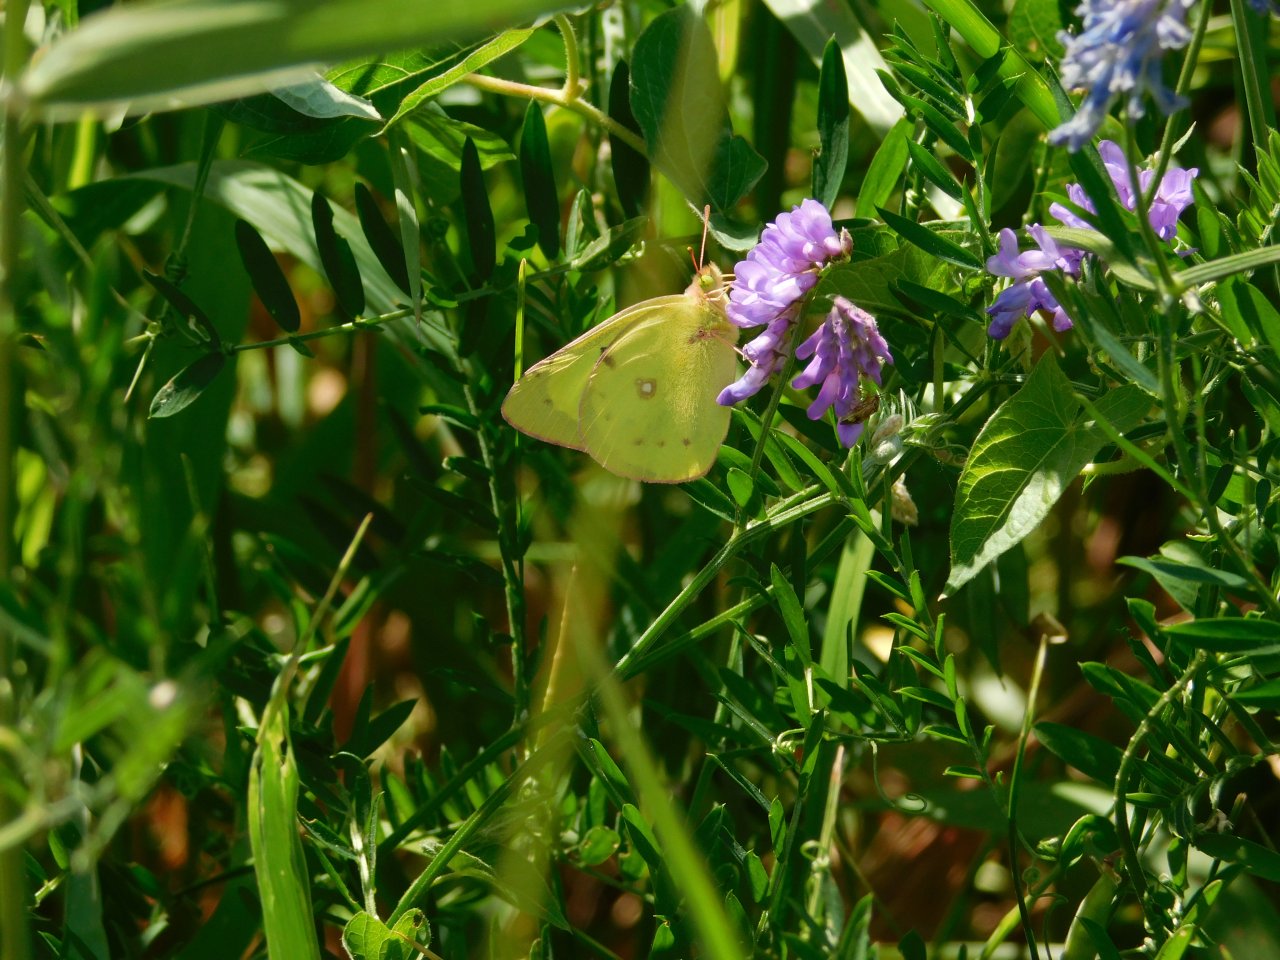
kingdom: Animalia
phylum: Arthropoda
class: Insecta
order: Lepidoptera
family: Pieridae
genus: Colias
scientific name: Colias philodice
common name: Clouded Sulphur
